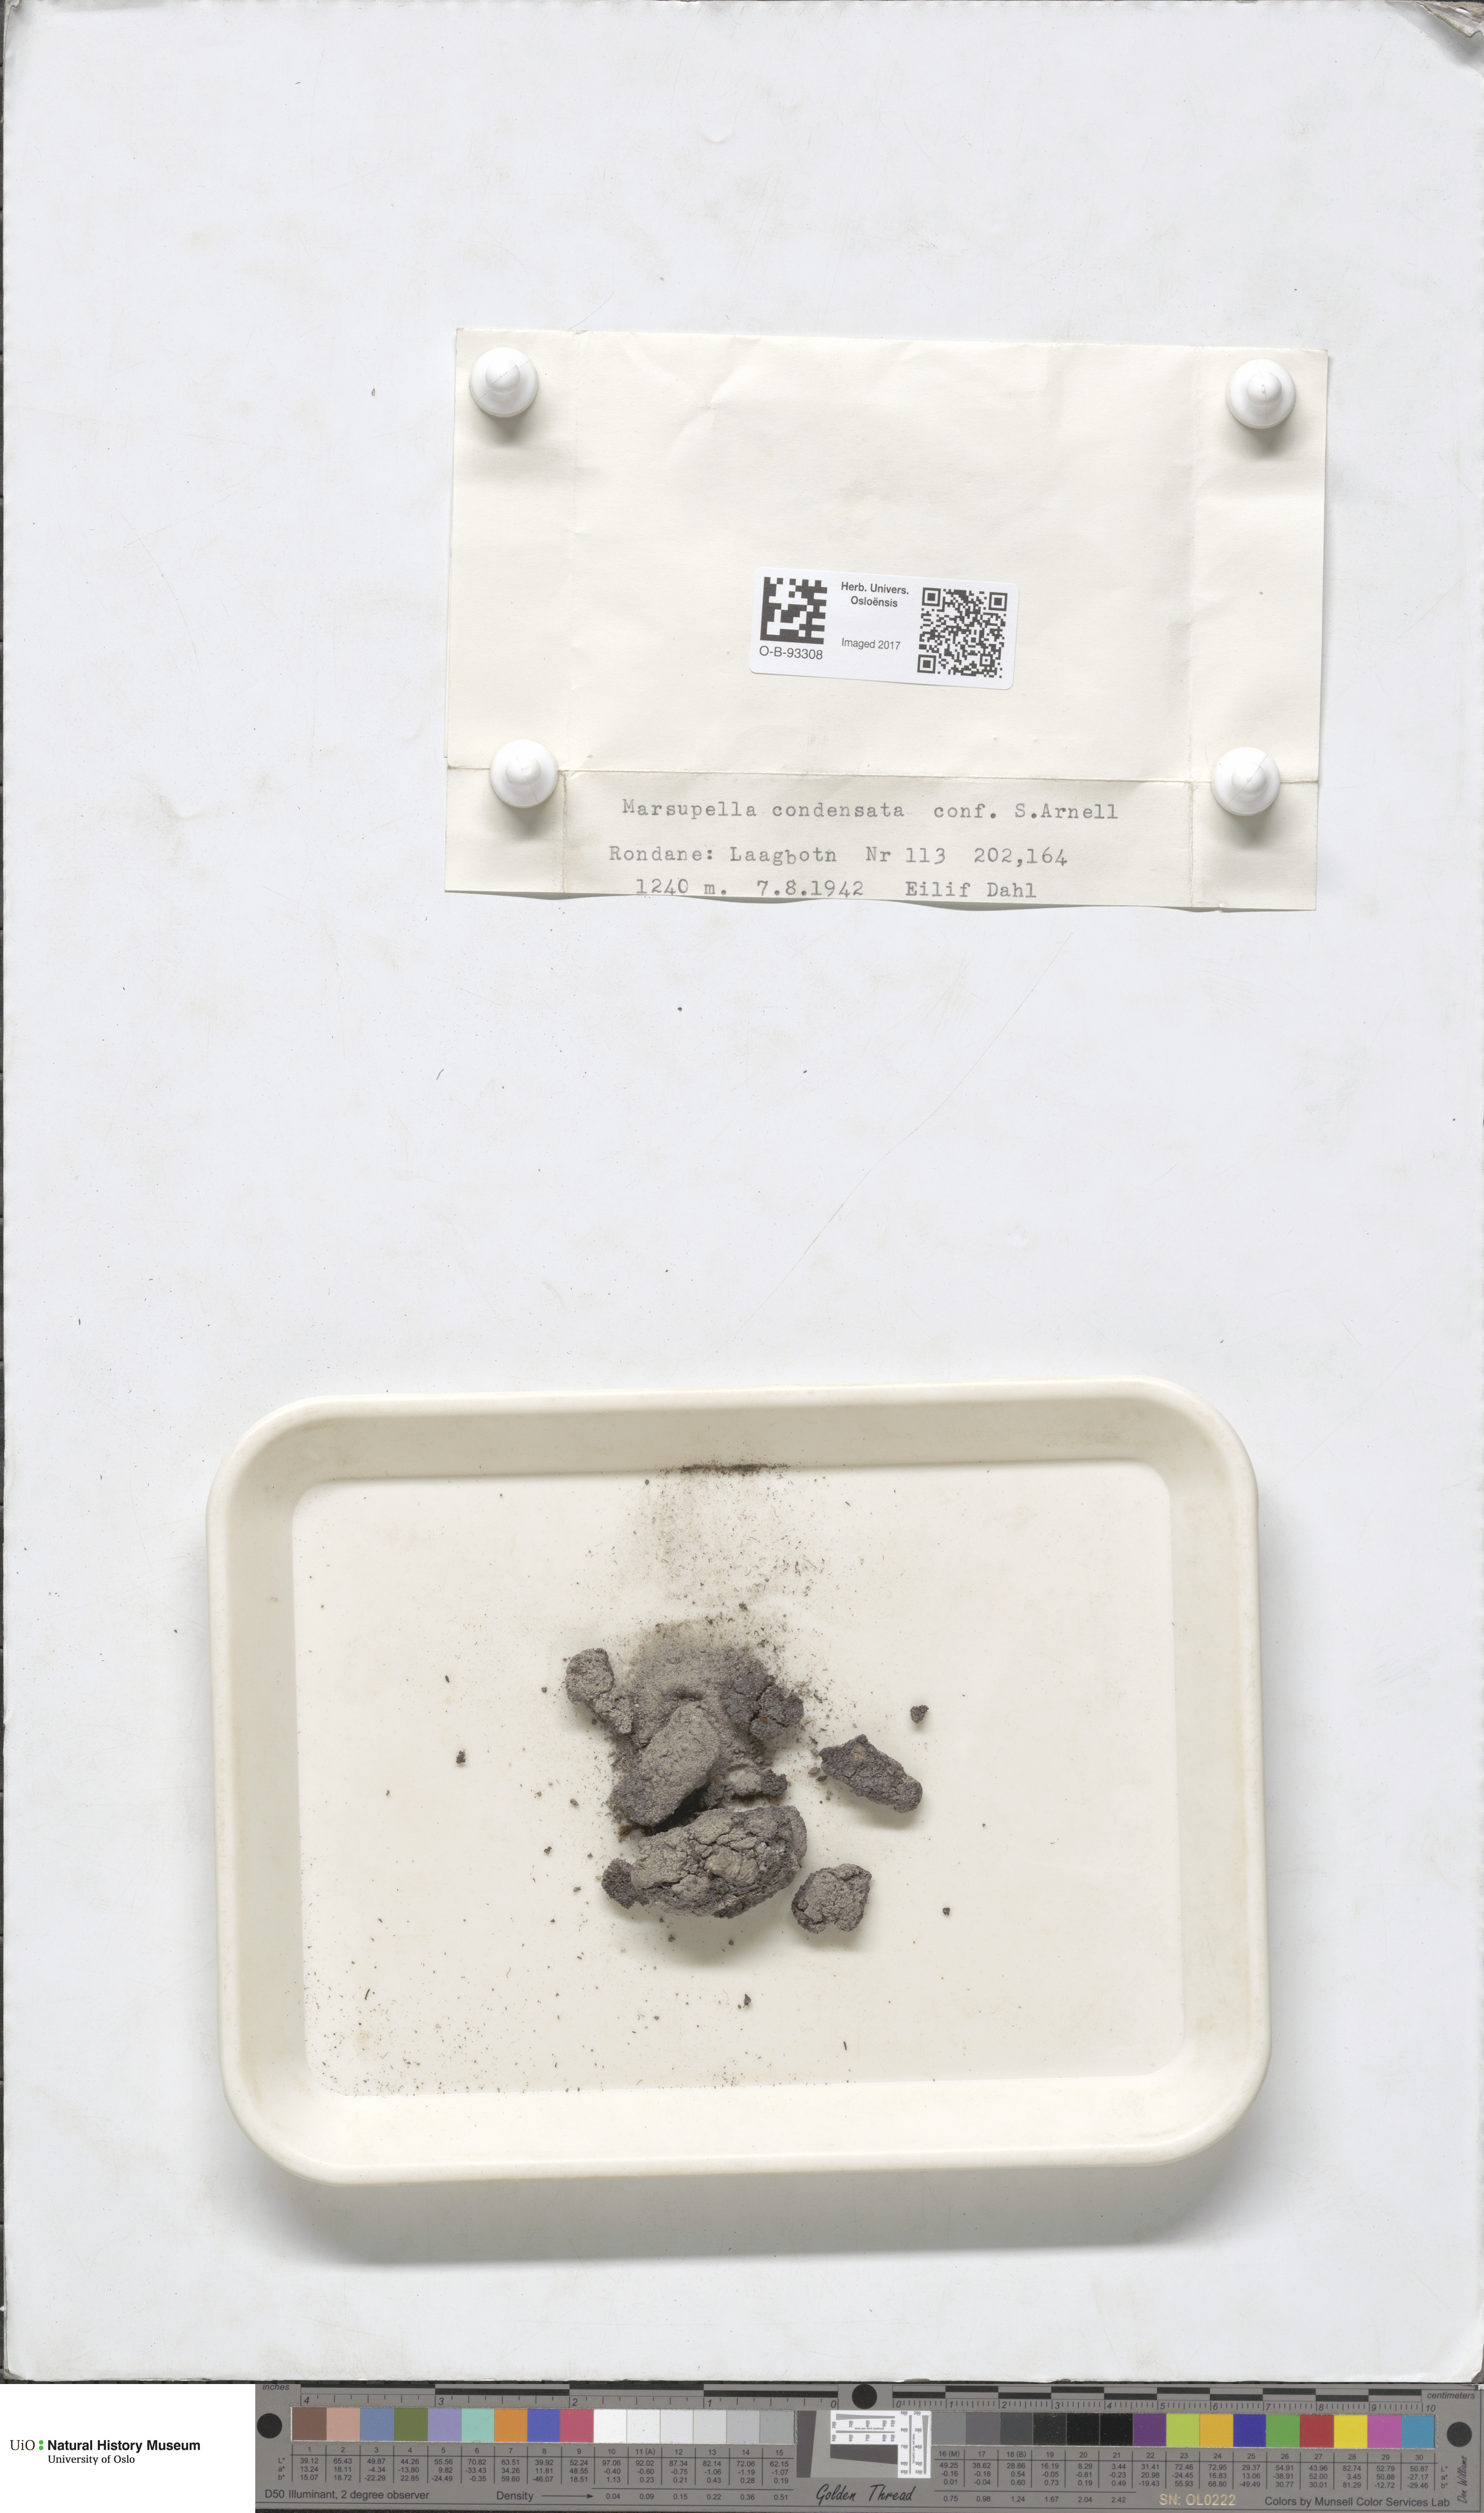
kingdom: Plantae
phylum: Marchantiophyta
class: Jungermanniopsida
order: Jungermanniales
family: Gymnomitriaceae
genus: Gymnomitrion
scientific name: Gymnomitrion brevissimum
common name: Snow rustwort
